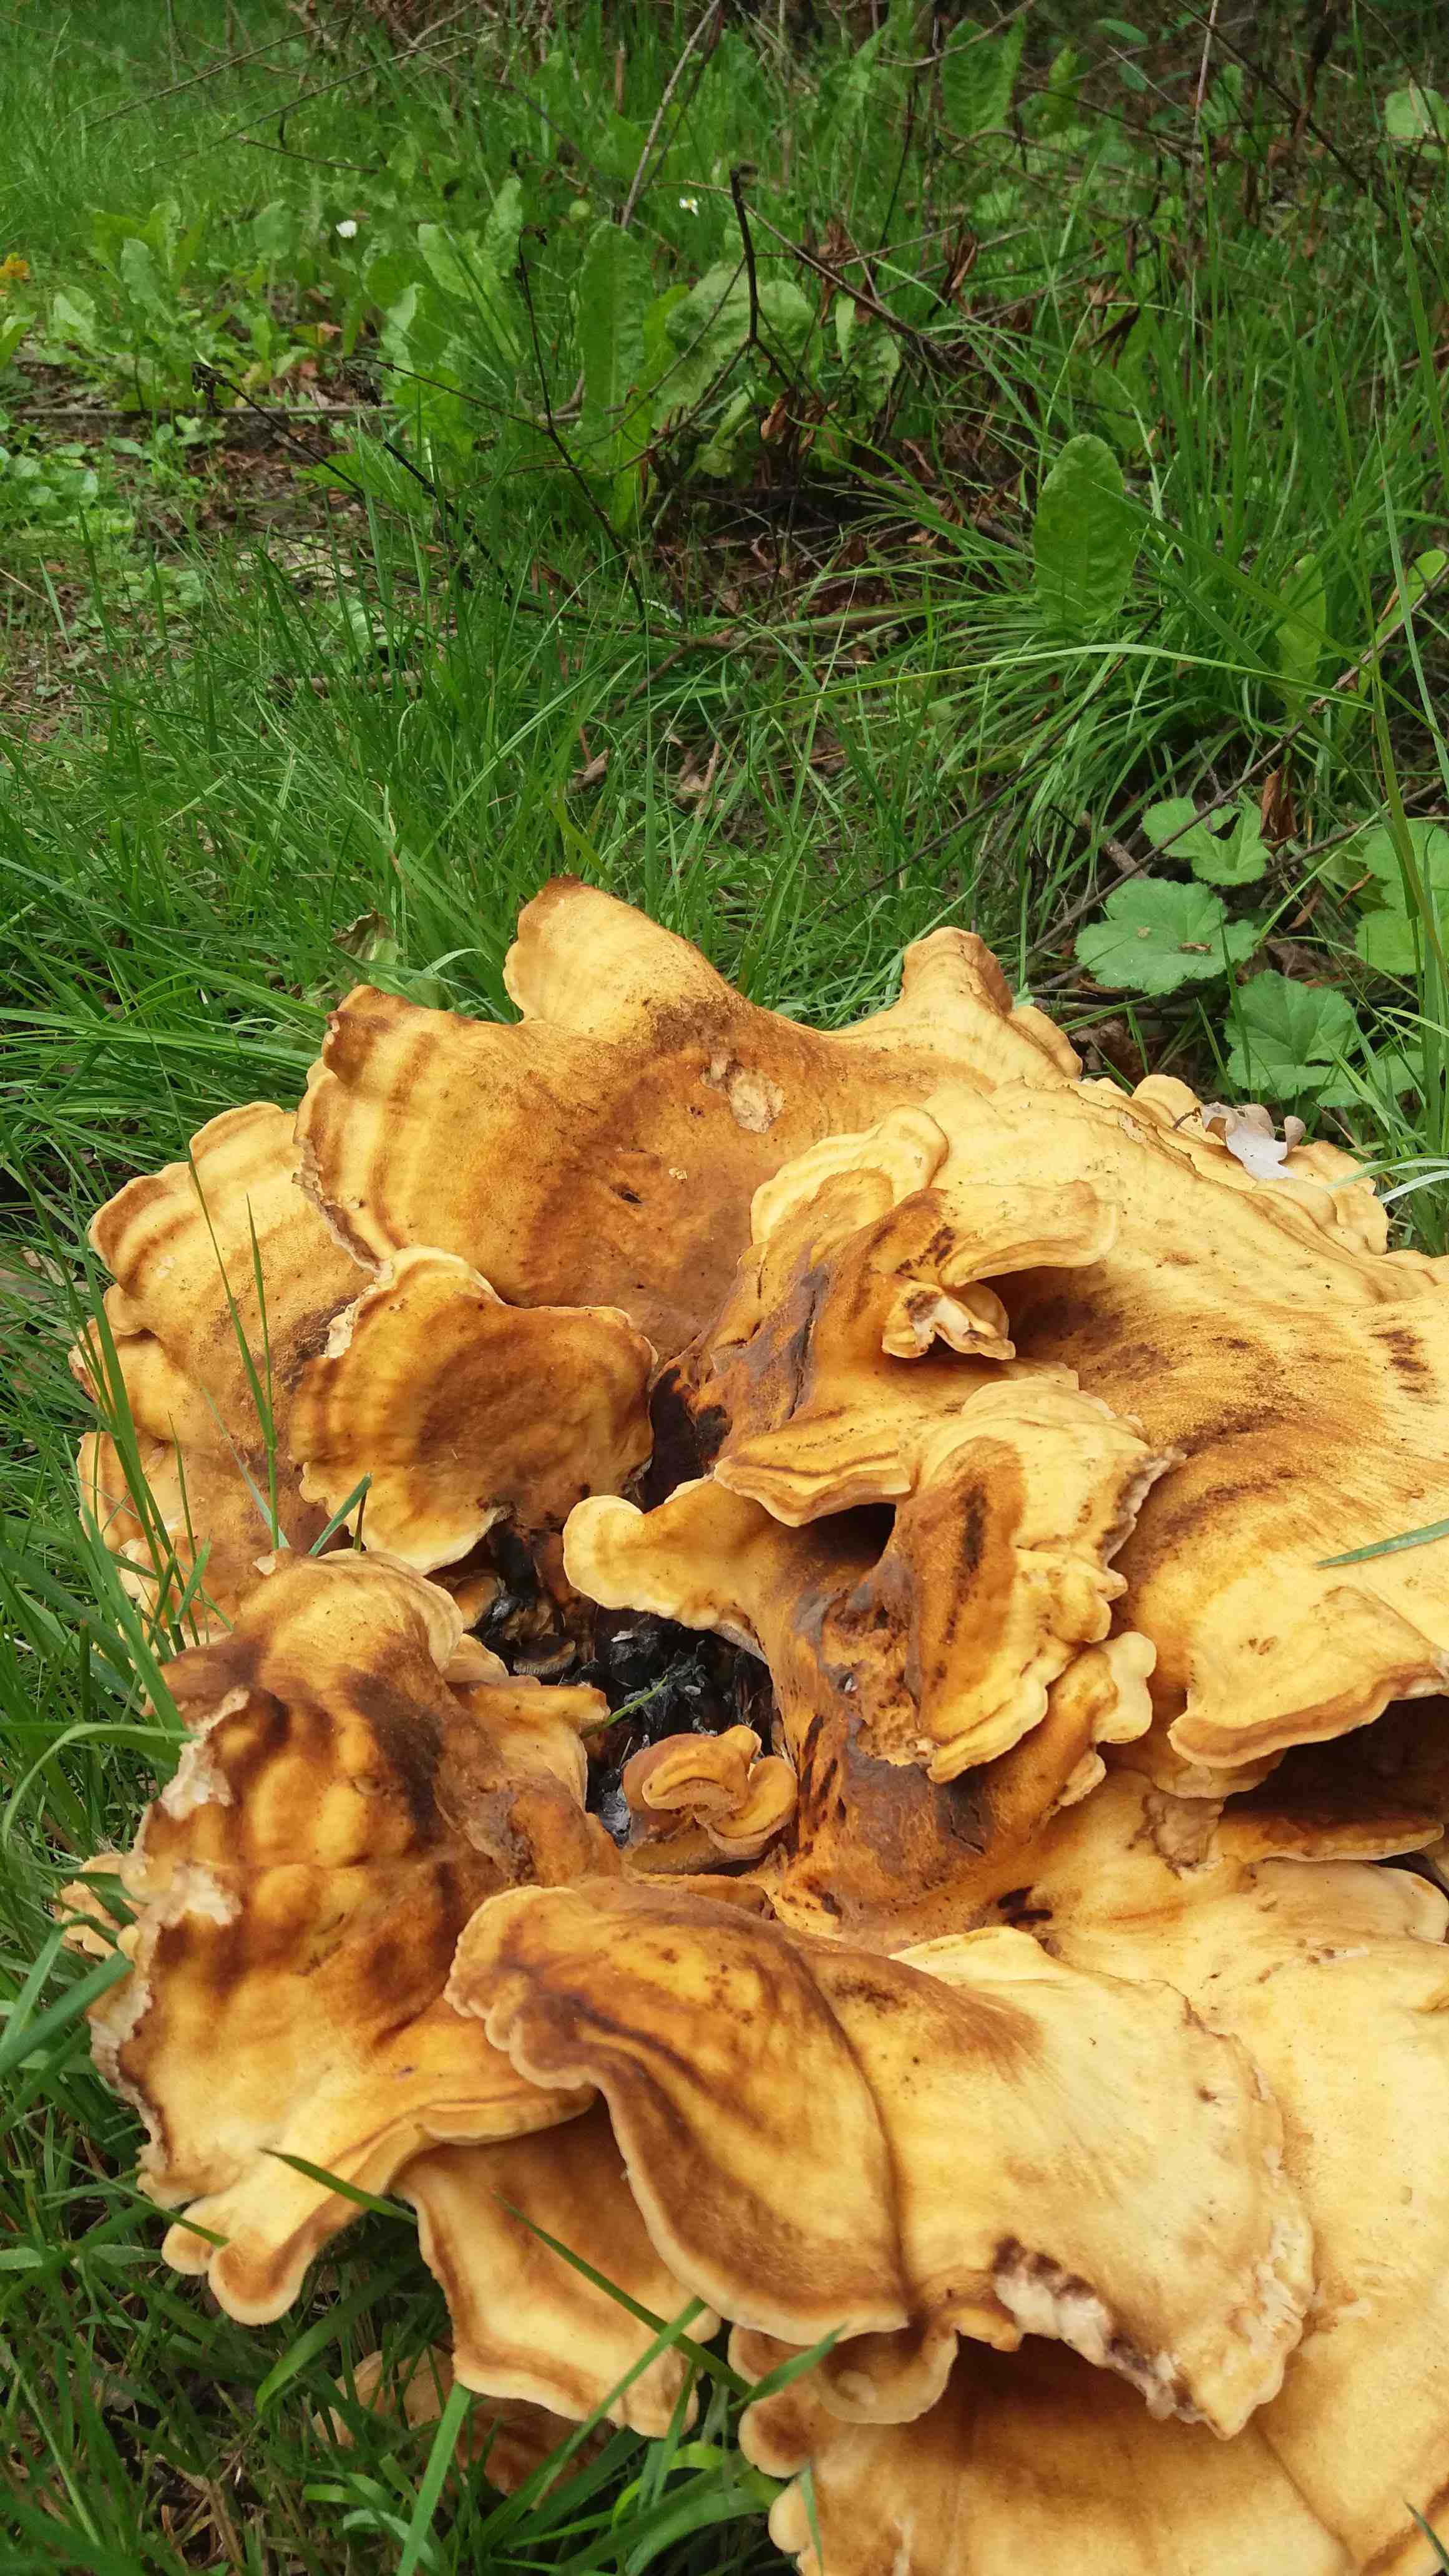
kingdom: Fungi
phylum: Basidiomycota
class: Agaricomycetes
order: Polyporales
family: Meripilaceae
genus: Meripilus
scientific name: Meripilus giganteus
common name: kæmpeporesvamp
